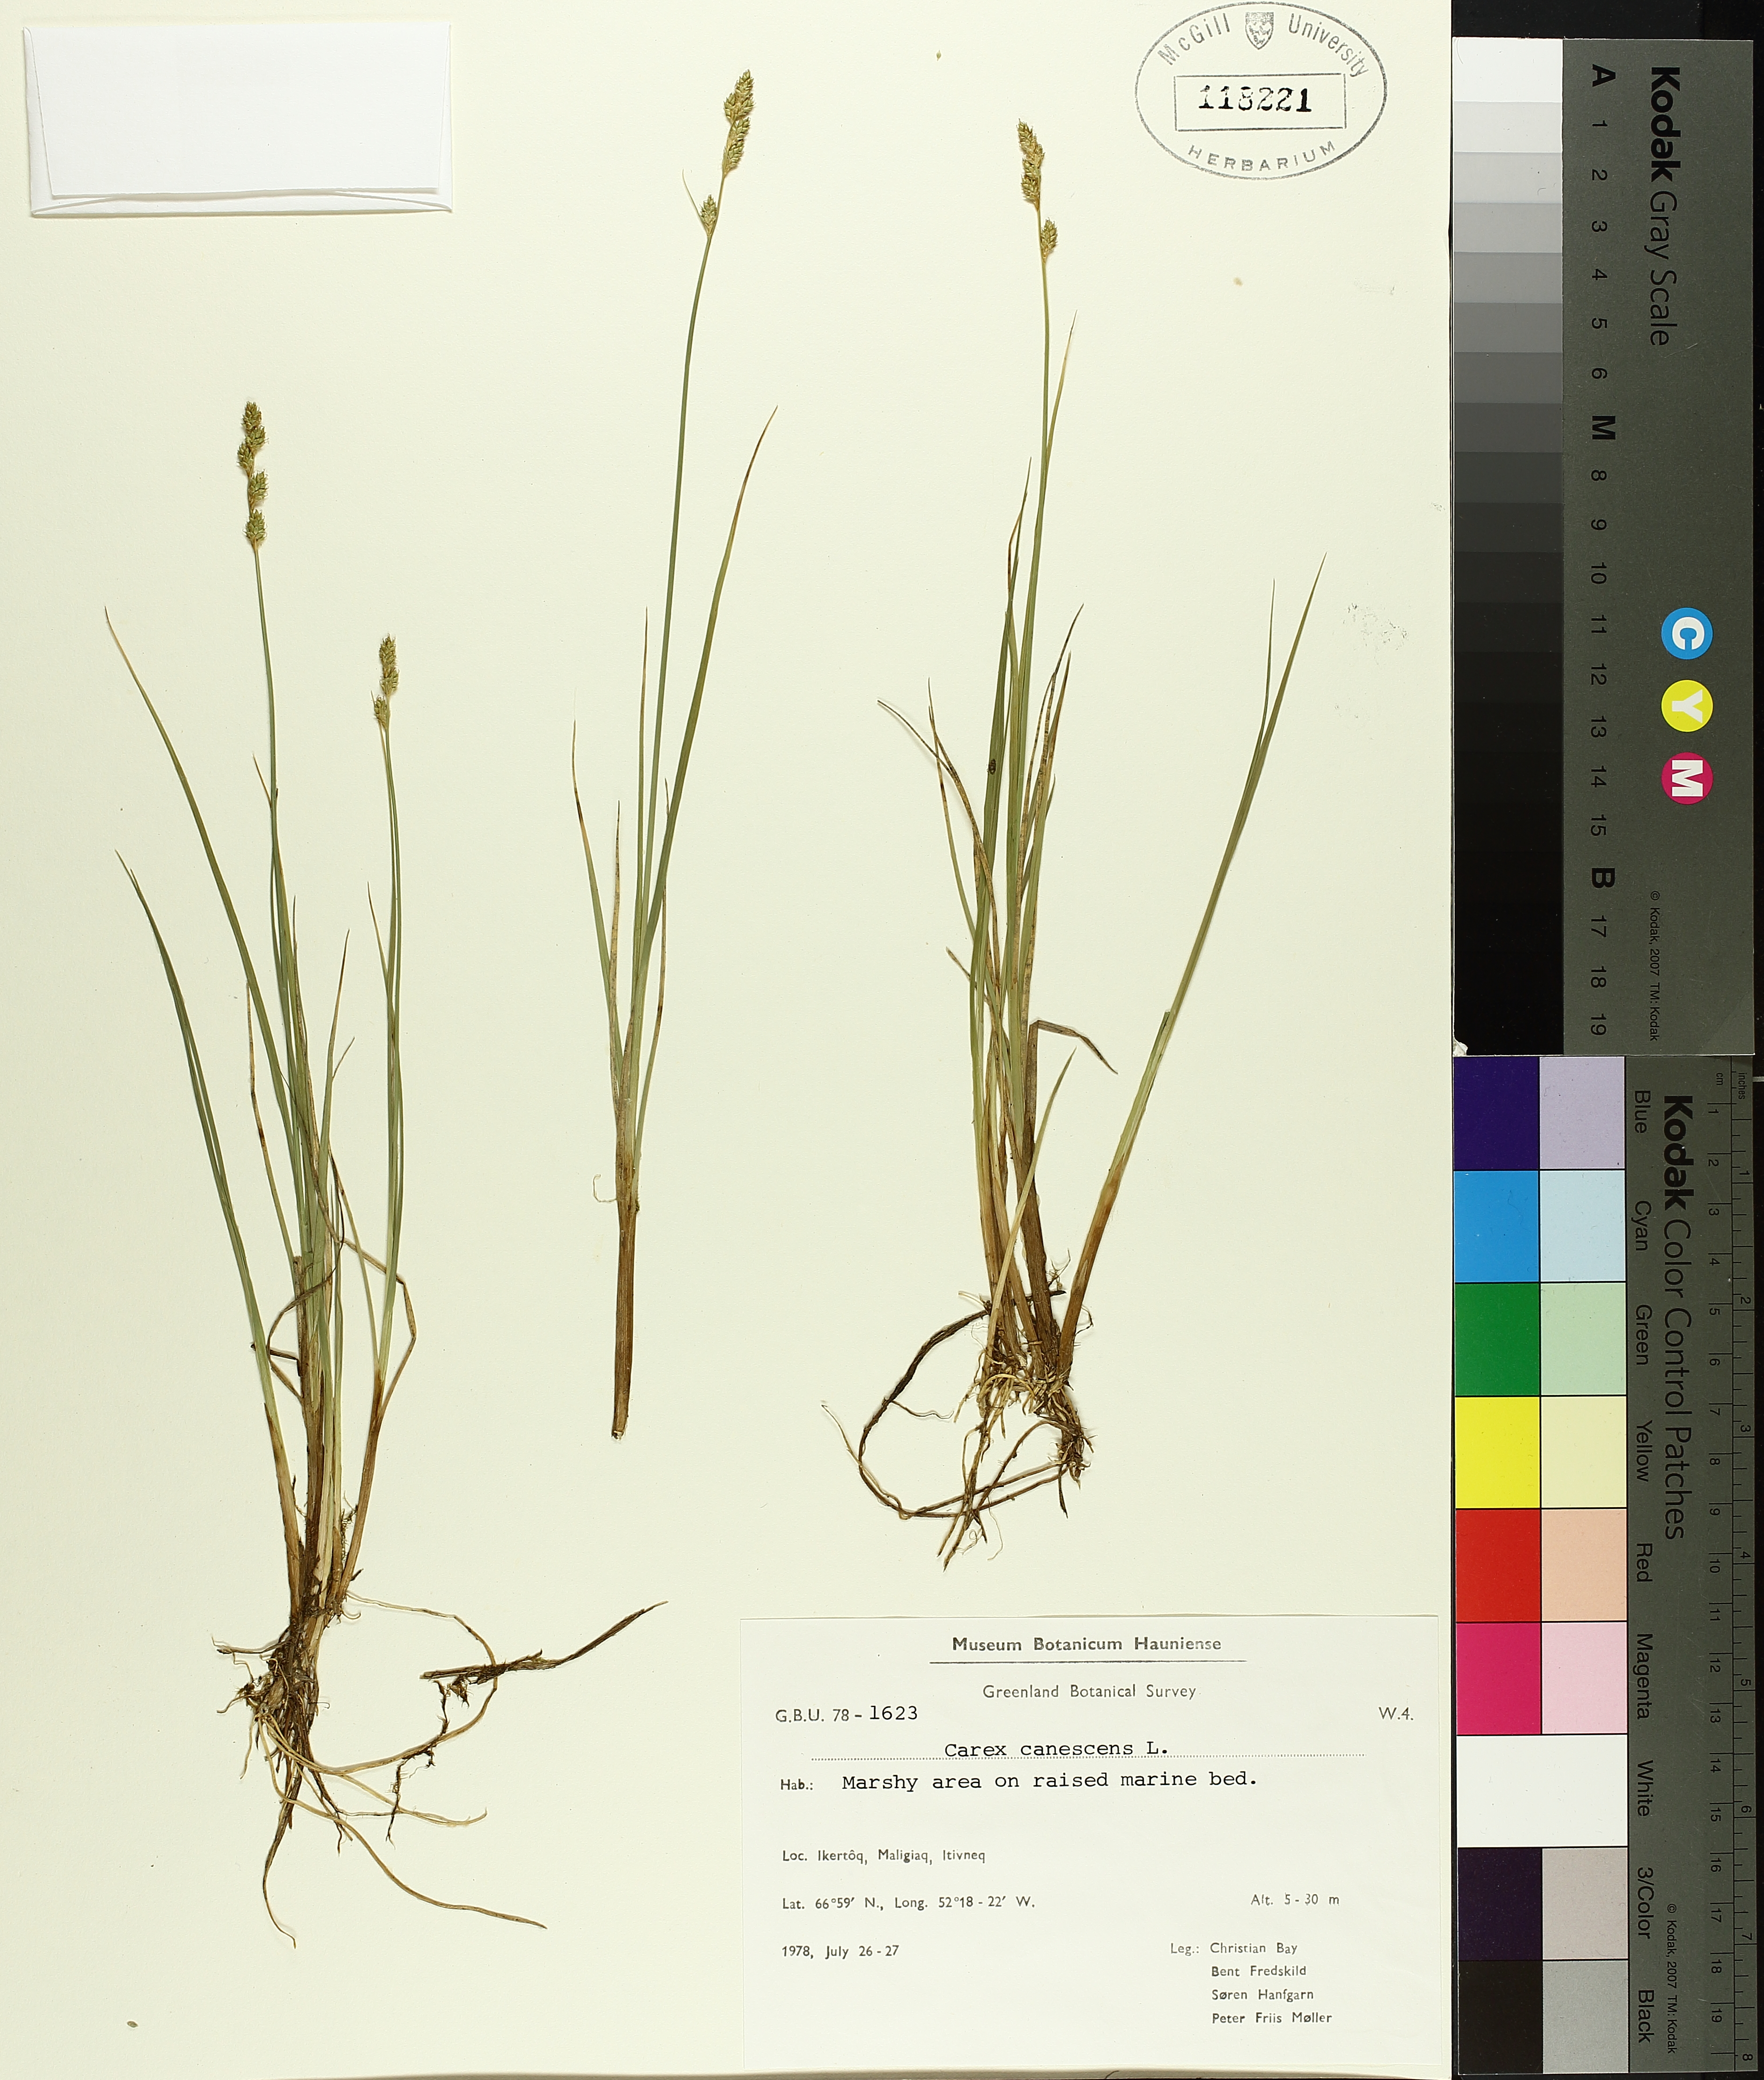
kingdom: Plantae
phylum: Tracheophyta
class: Liliopsida
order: Poales
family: Cyperaceae
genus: Carex
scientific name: Carex canescens
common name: White sedge
